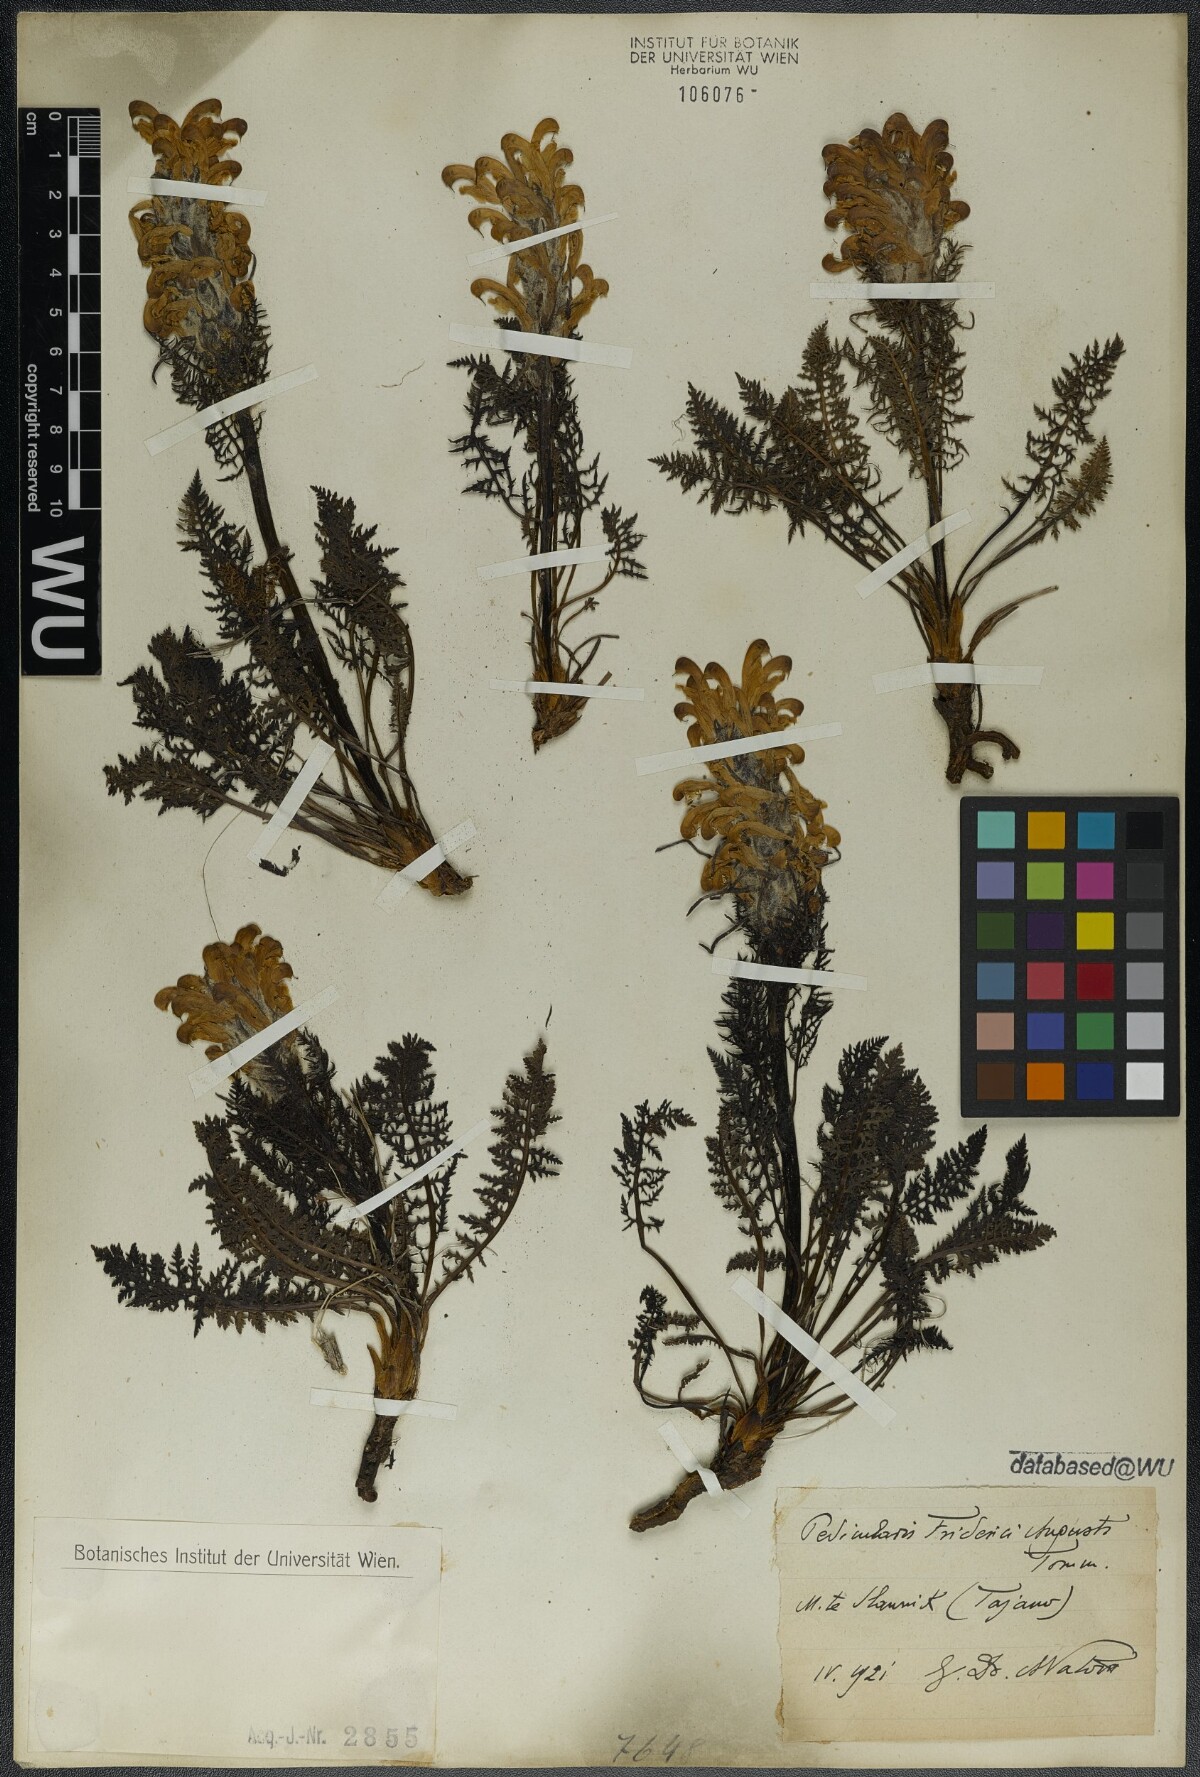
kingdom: Plantae
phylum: Tracheophyta
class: Magnoliopsida
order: Lamiales
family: Orobanchaceae
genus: Pedicularis
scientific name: Pedicularis friderici-augusti
